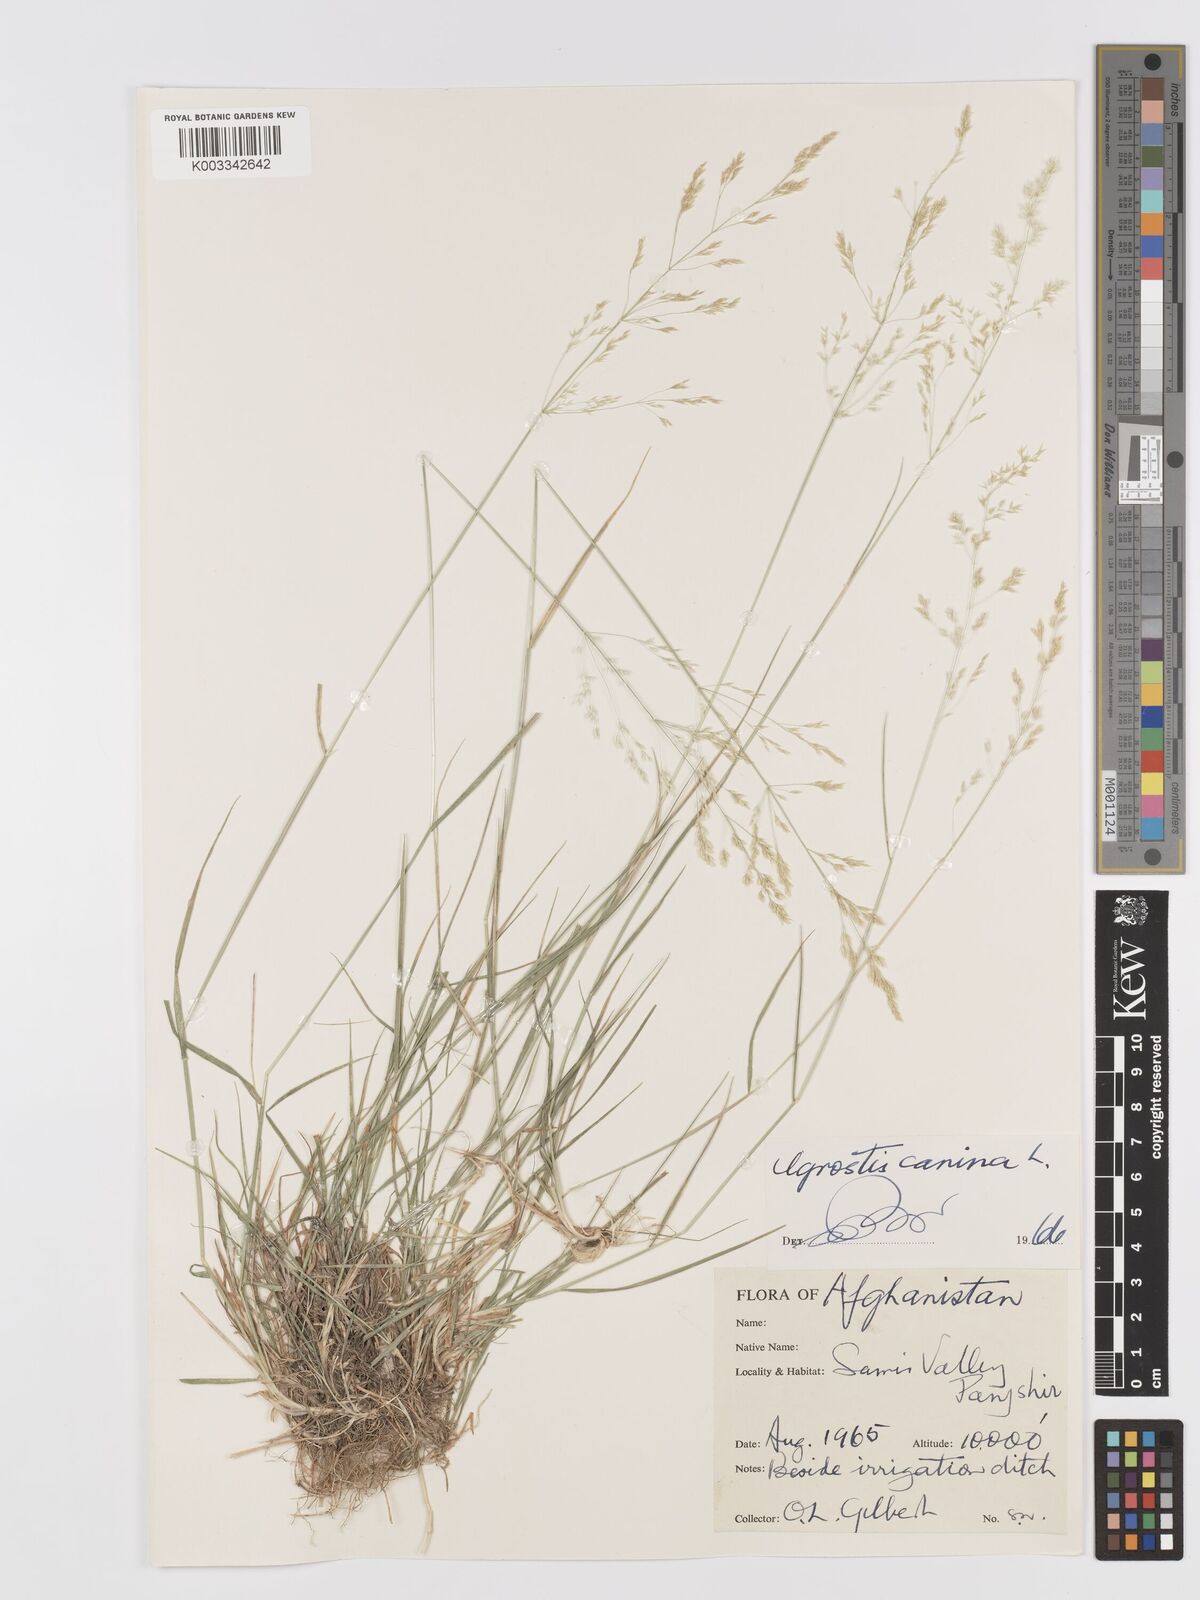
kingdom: Plantae
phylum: Tracheophyta
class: Liliopsida
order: Poales
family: Poaceae
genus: Agrostis
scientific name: Agrostis canina
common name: Velvet bent
